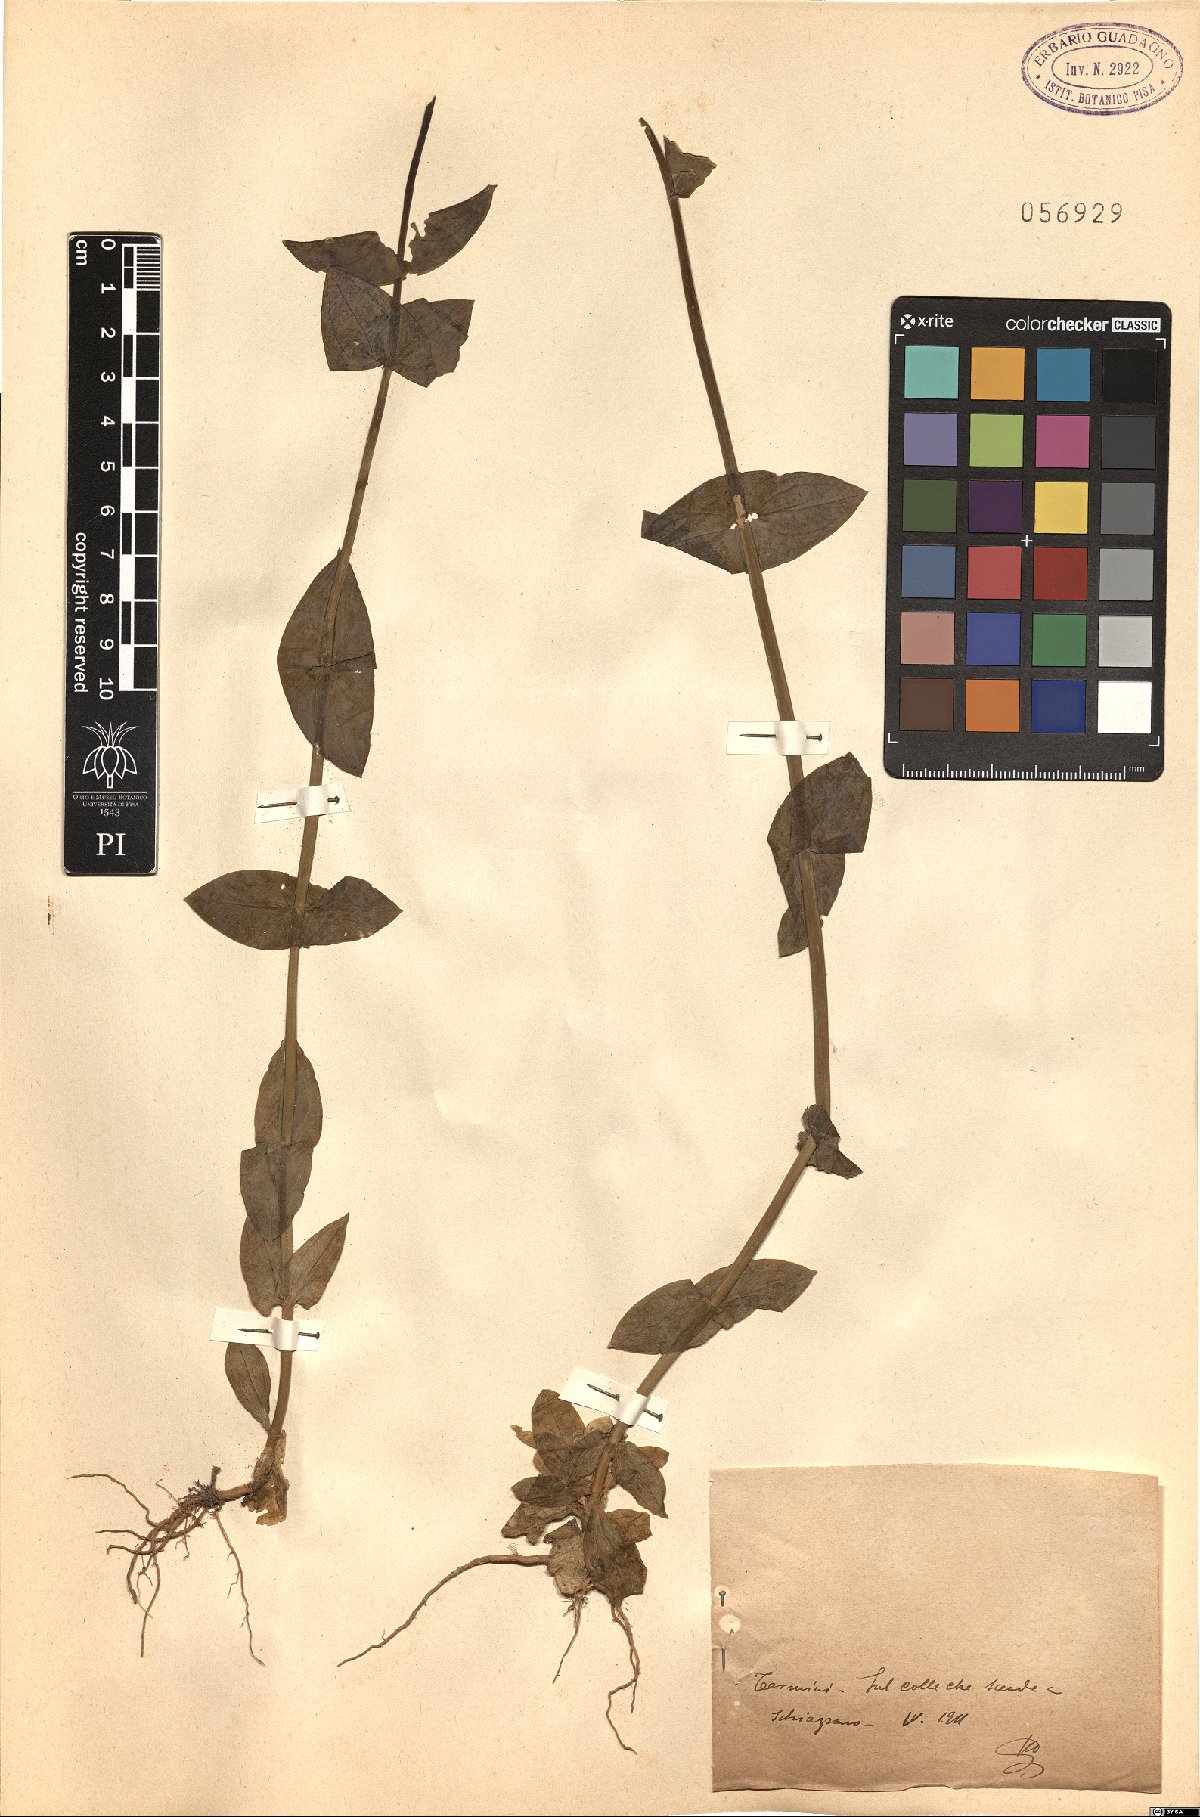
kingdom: Plantae
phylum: Tracheophyta
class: Magnoliopsida
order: Gentianales
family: Gentianaceae
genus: Blackstonia
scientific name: Blackstonia
